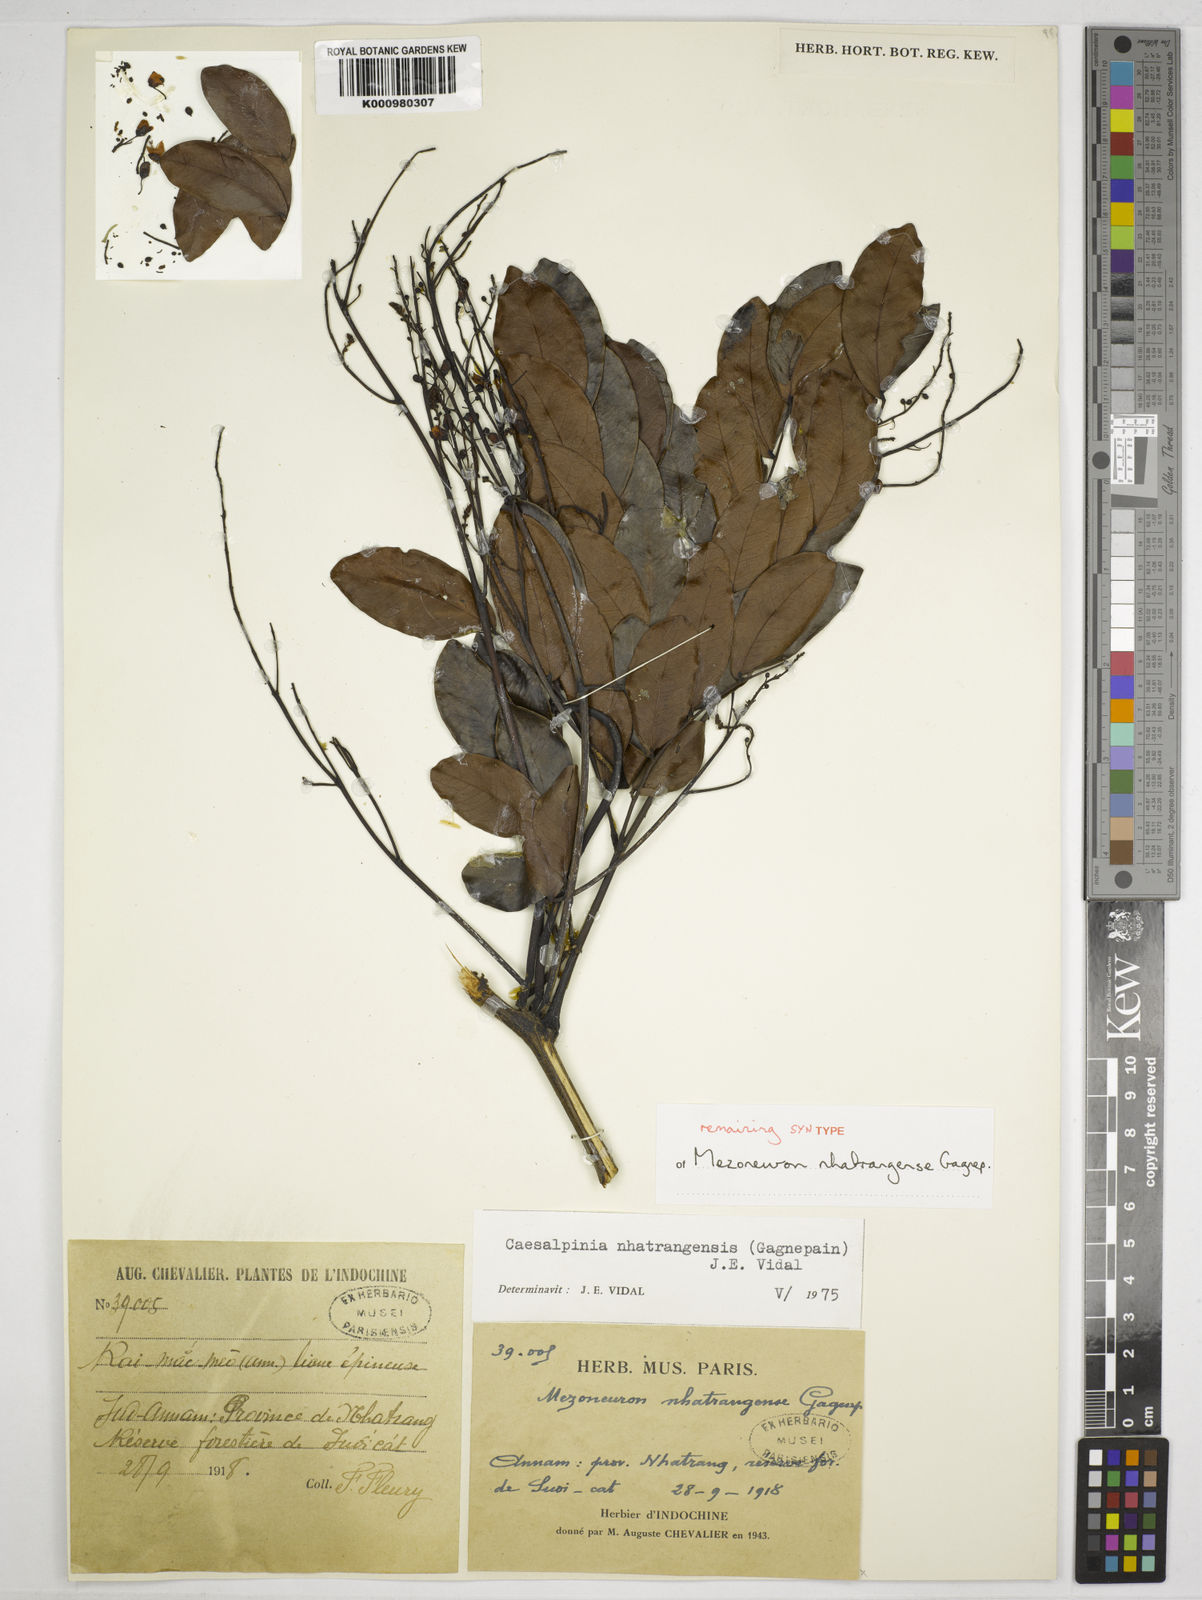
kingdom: Plantae
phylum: Tracheophyta
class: Magnoliopsida
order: Fabales
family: Fabaceae
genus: Mezoneuron
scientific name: Mezoneuron nhatrangense
